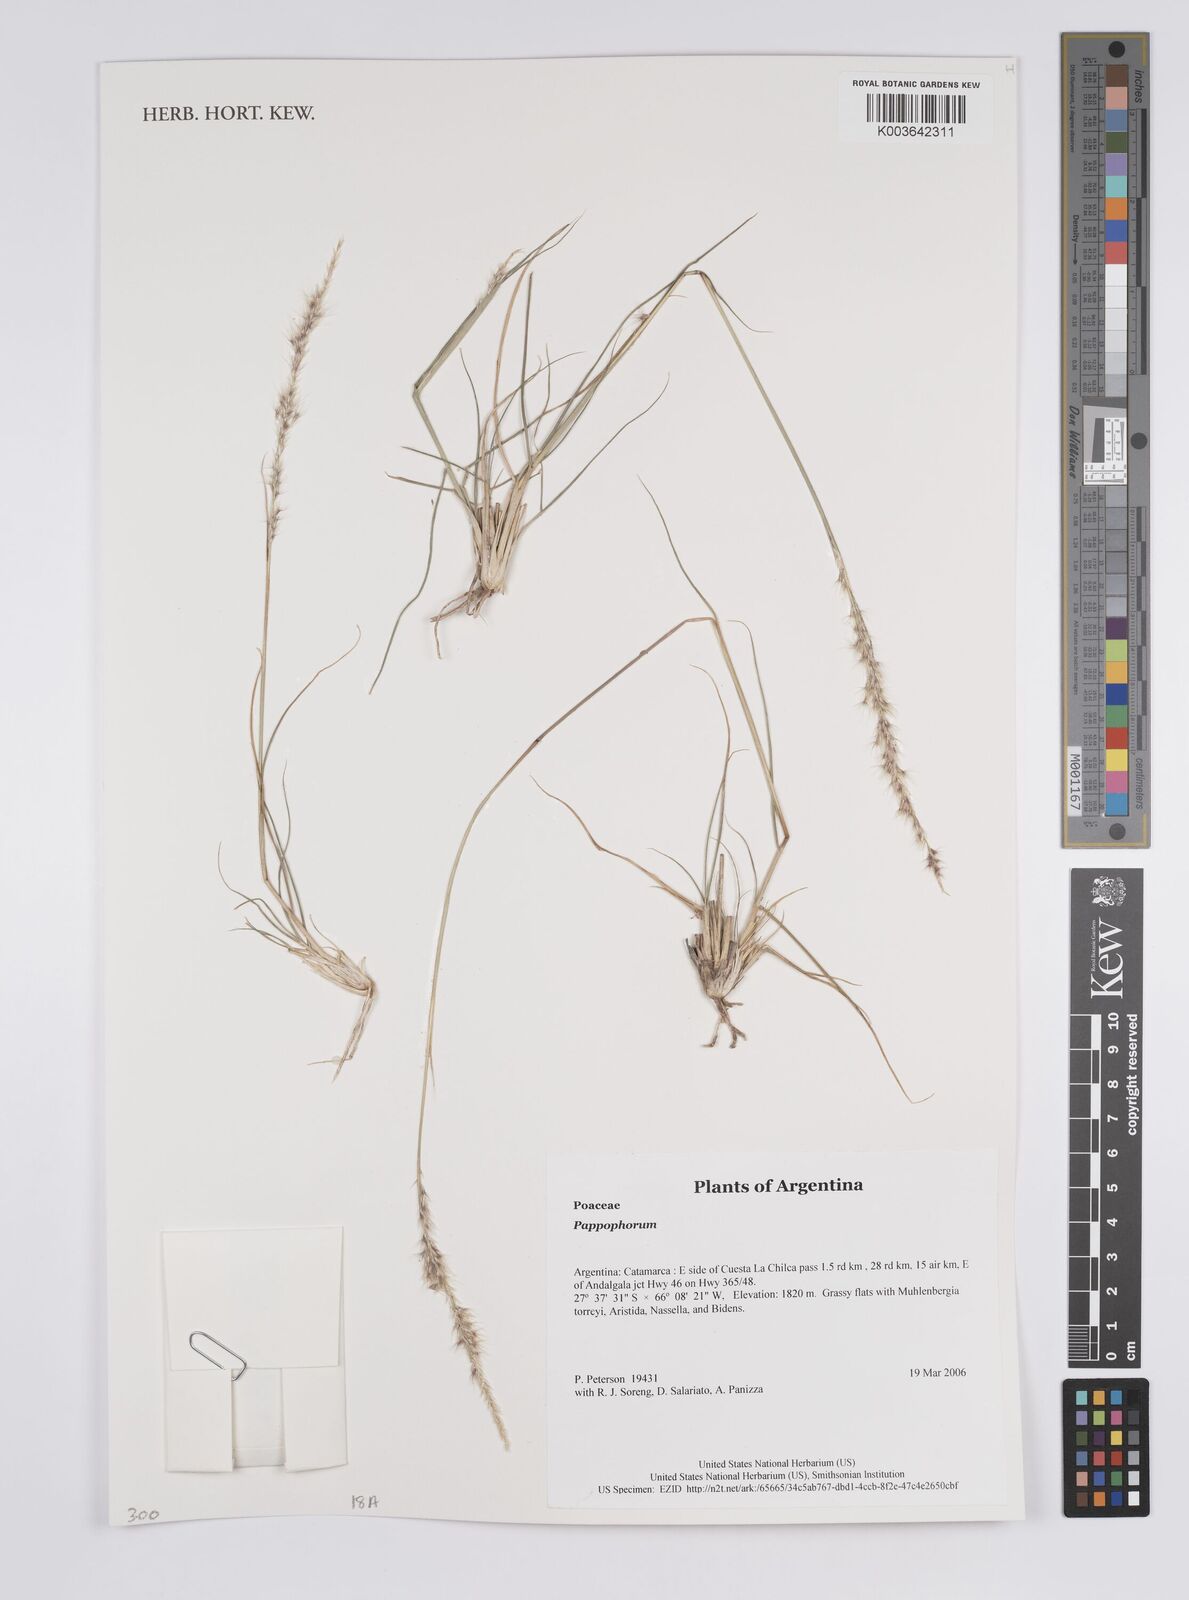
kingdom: Plantae
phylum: Tracheophyta
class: Liliopsida
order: Poales
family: Poaceae
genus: Pappophorum
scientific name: Pappophorum
